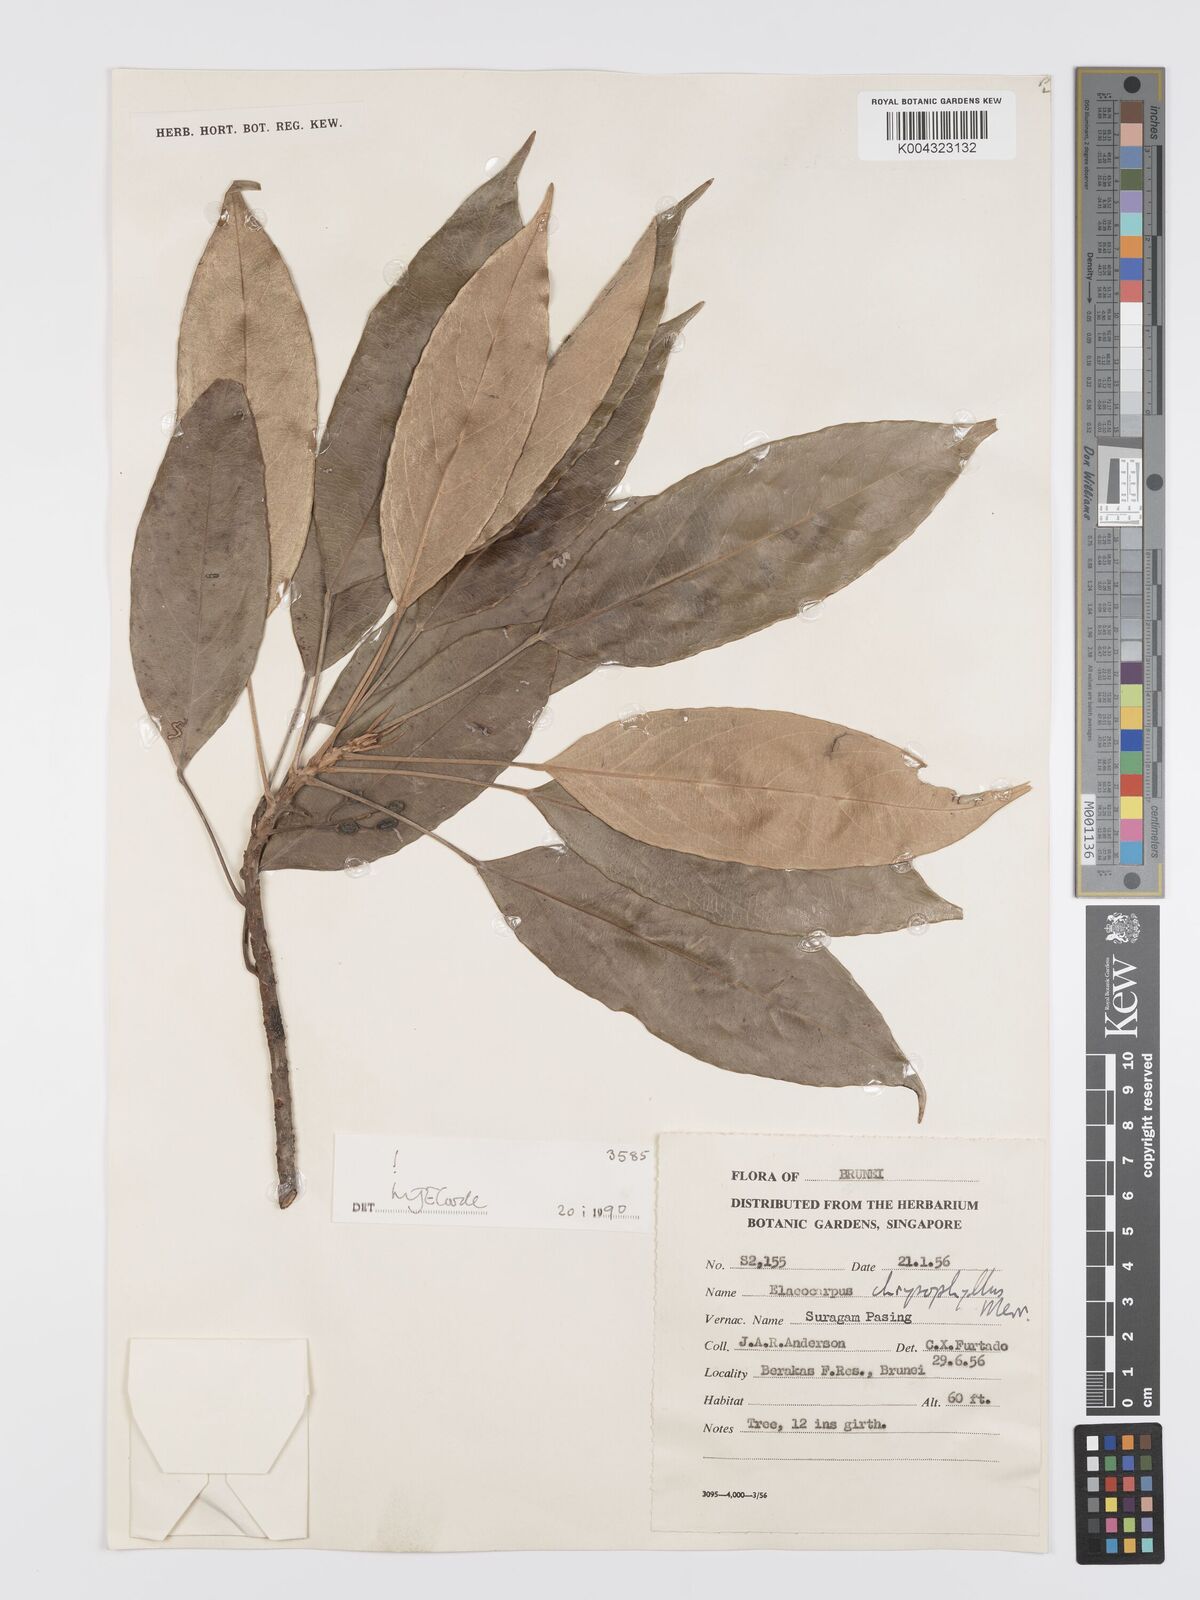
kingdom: Plantae
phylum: Tracheophyta
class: Magnoliopsida
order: Oxalidales
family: Elaeocarpaceae
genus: Elaeocarpus
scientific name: Elaeocarpus chrysophyllus
